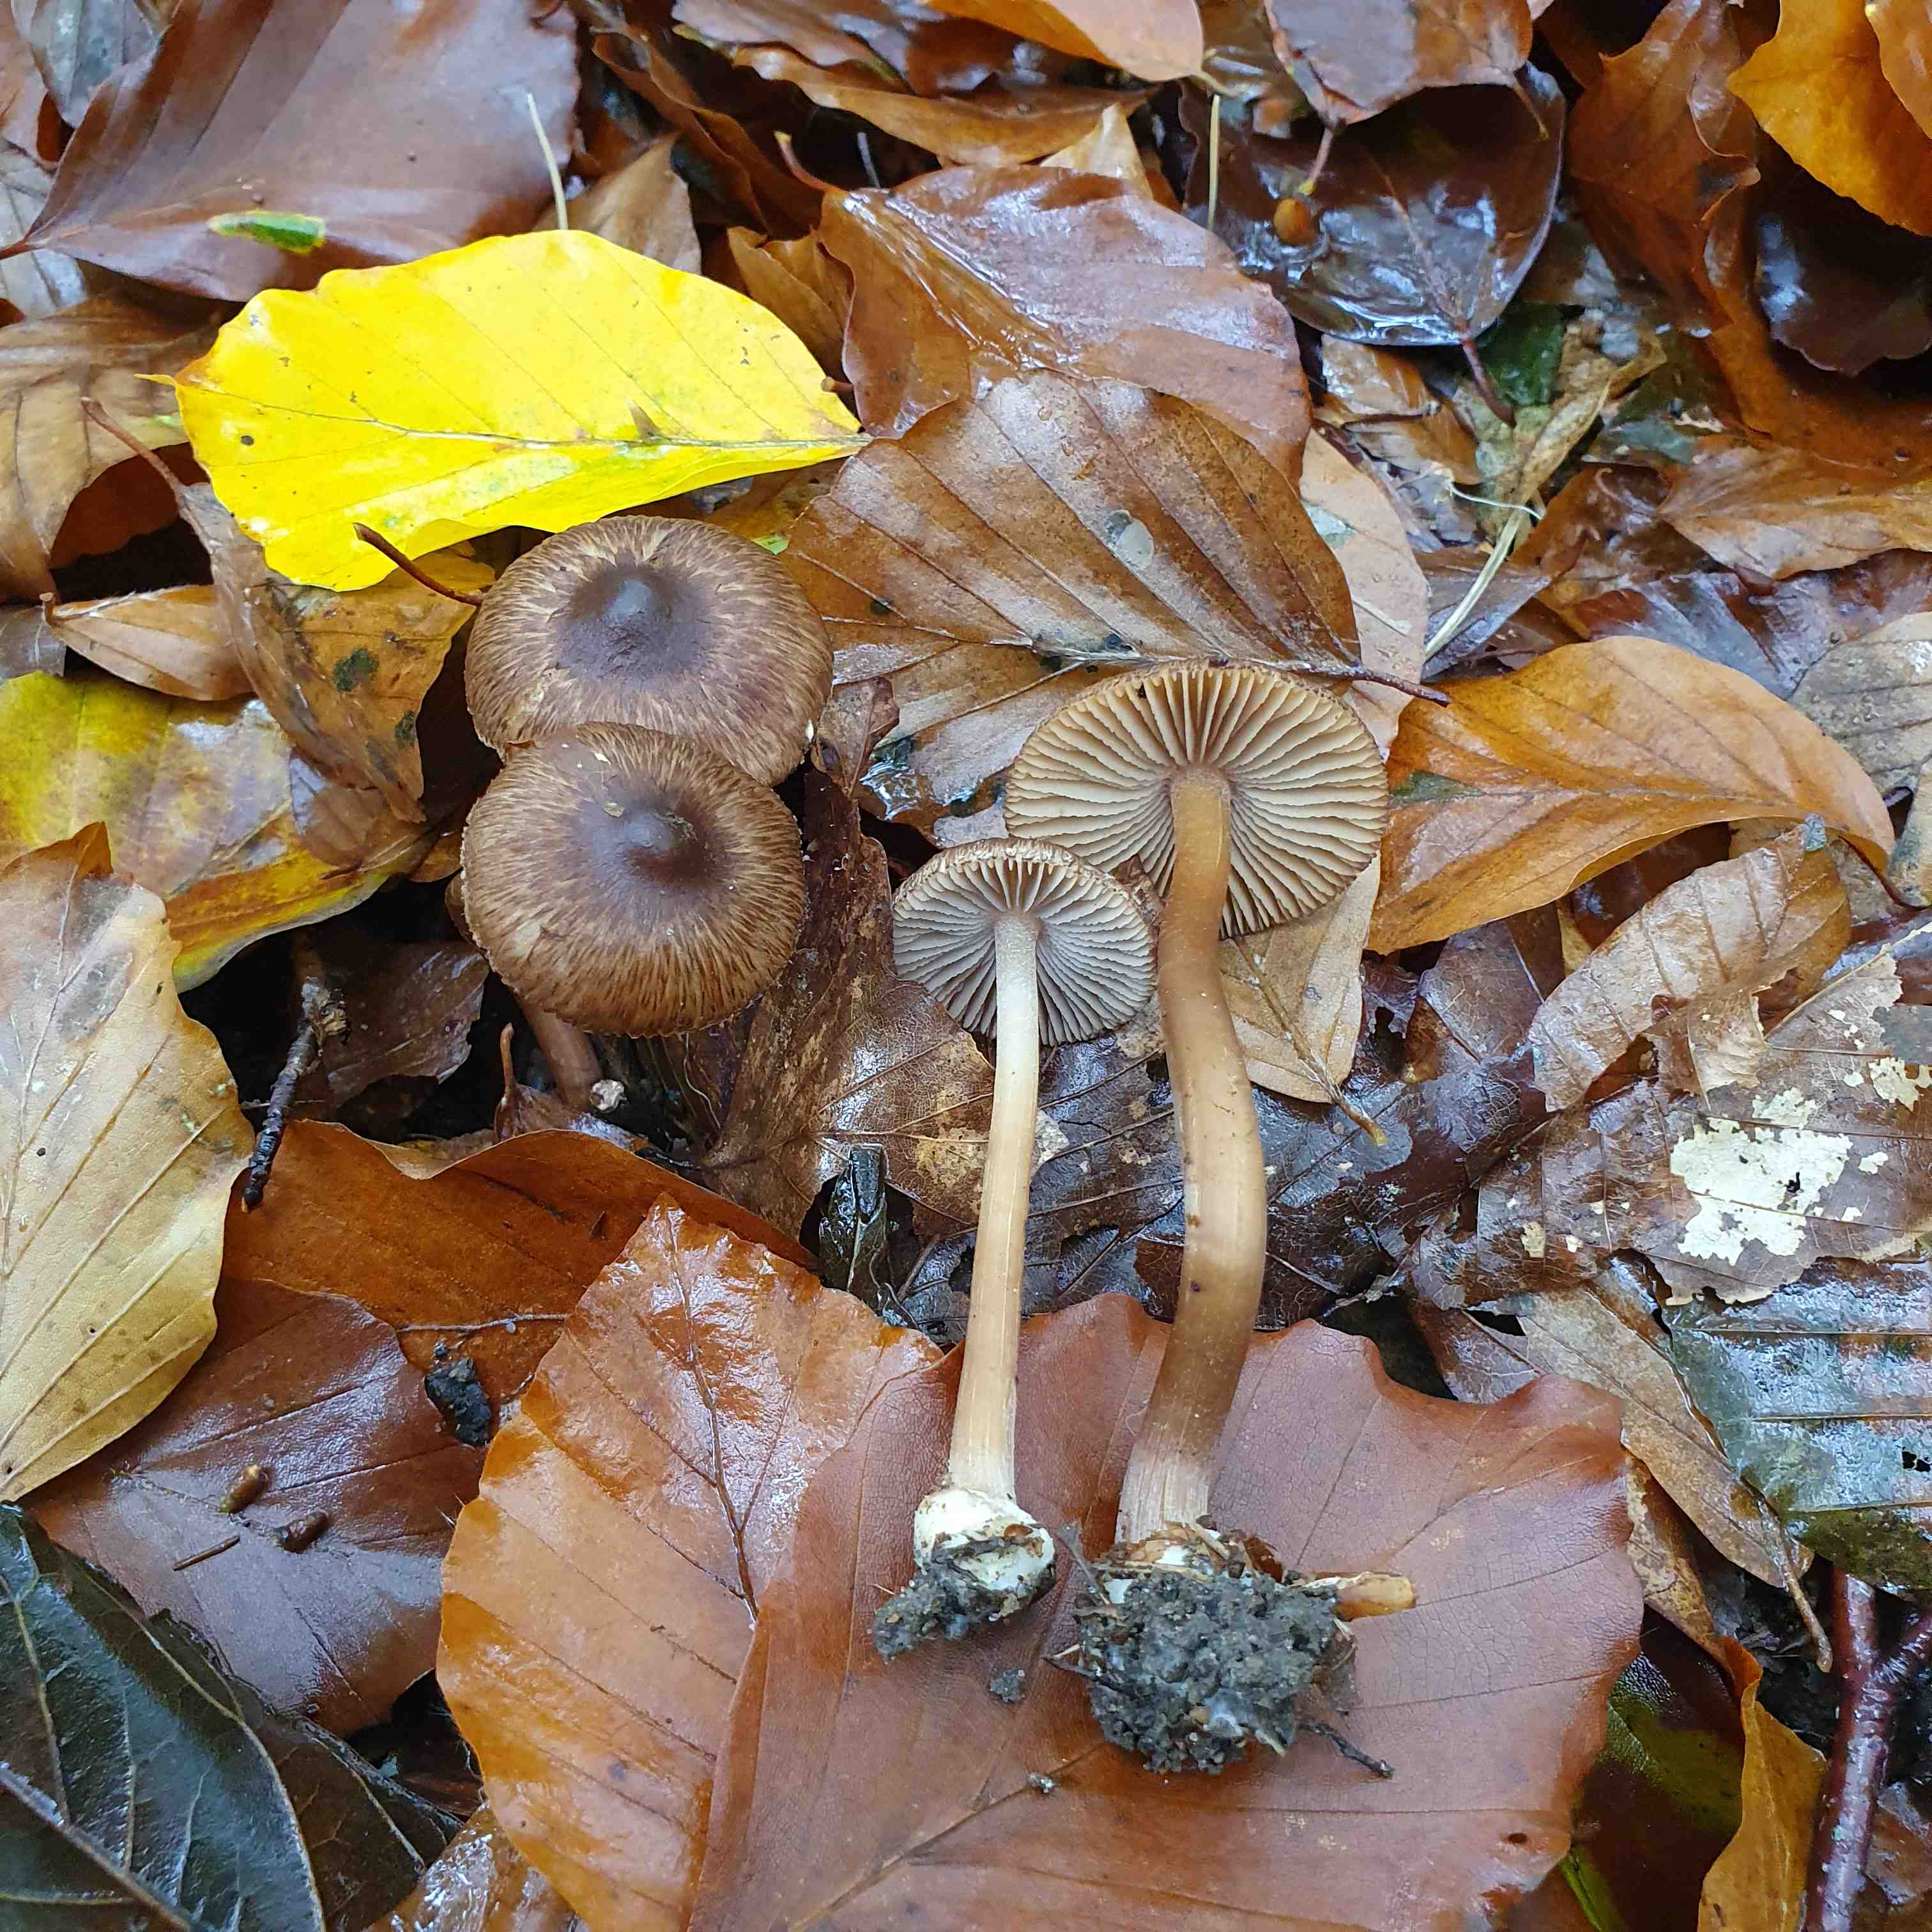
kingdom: Fungi
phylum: Basidiomycota
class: Agaricomycetes
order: Agaricales
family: Inocybaceae
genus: Inocybe
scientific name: Inocybe asterospora
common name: stjernesporet trævlhat
